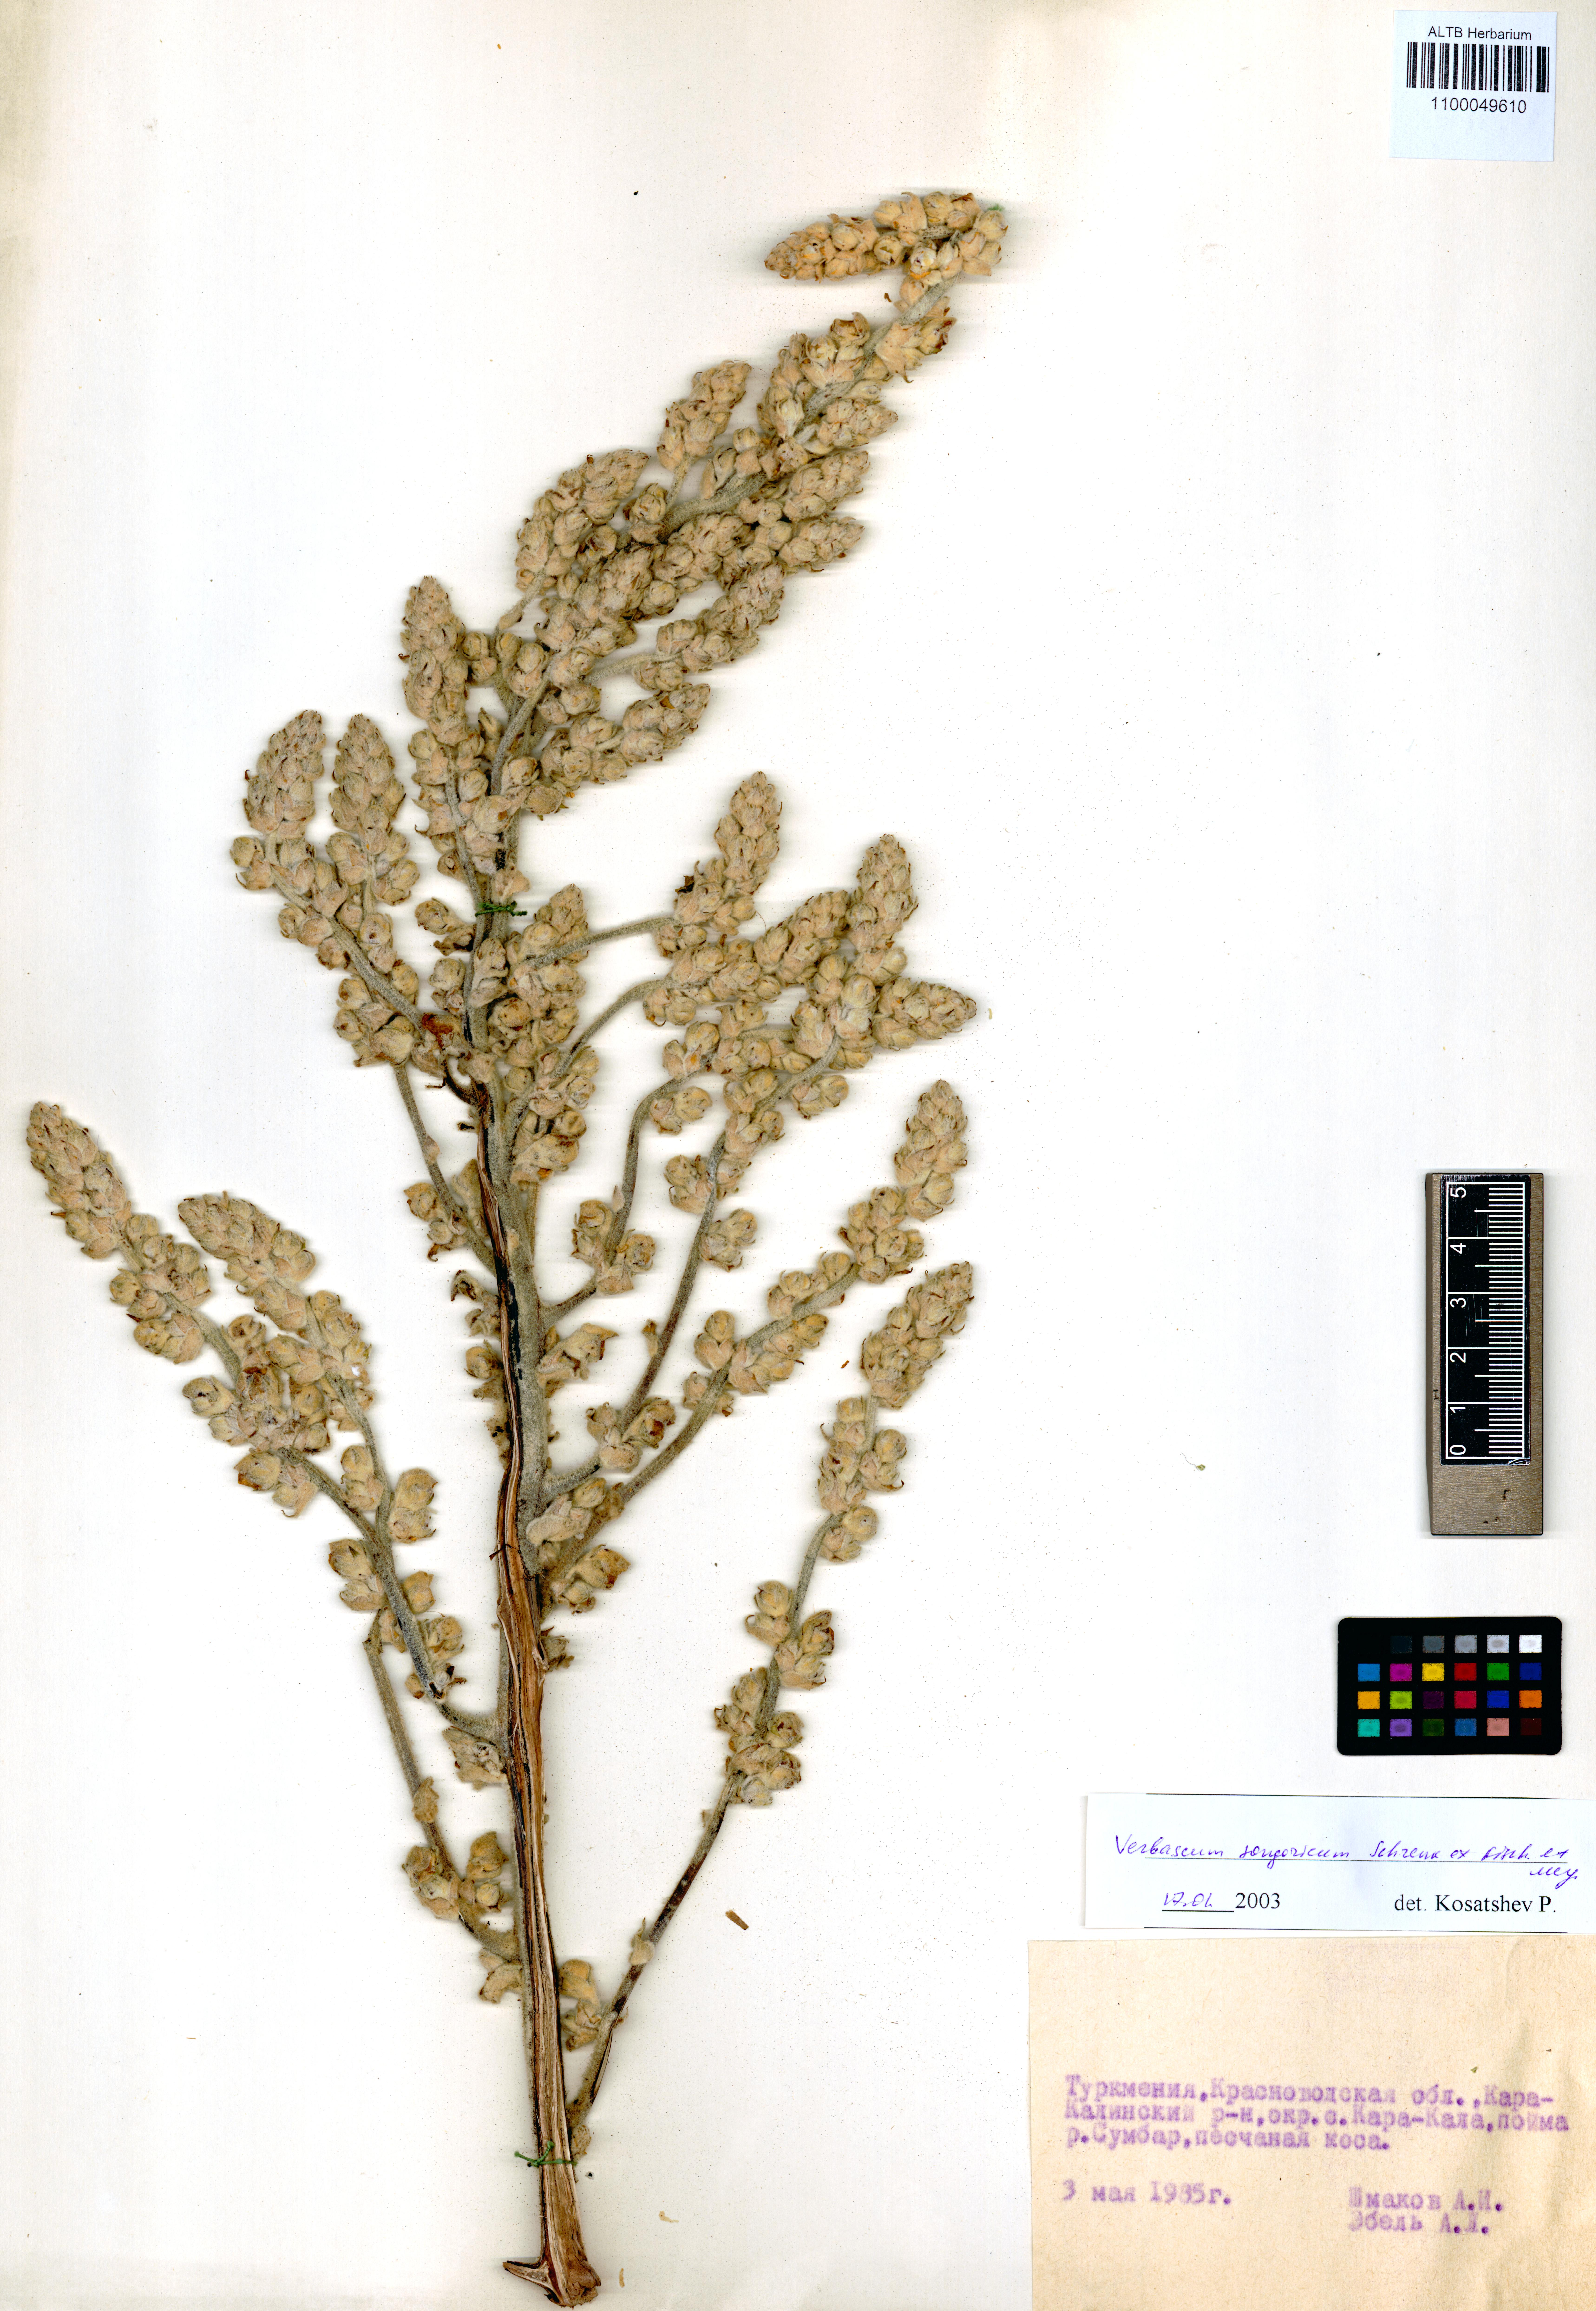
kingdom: Plantae
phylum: Tracheophyta
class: Magnoliopsida
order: Lamiales
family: Scrophulariaceae
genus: Verbascum
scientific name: Verbascum songaricum
